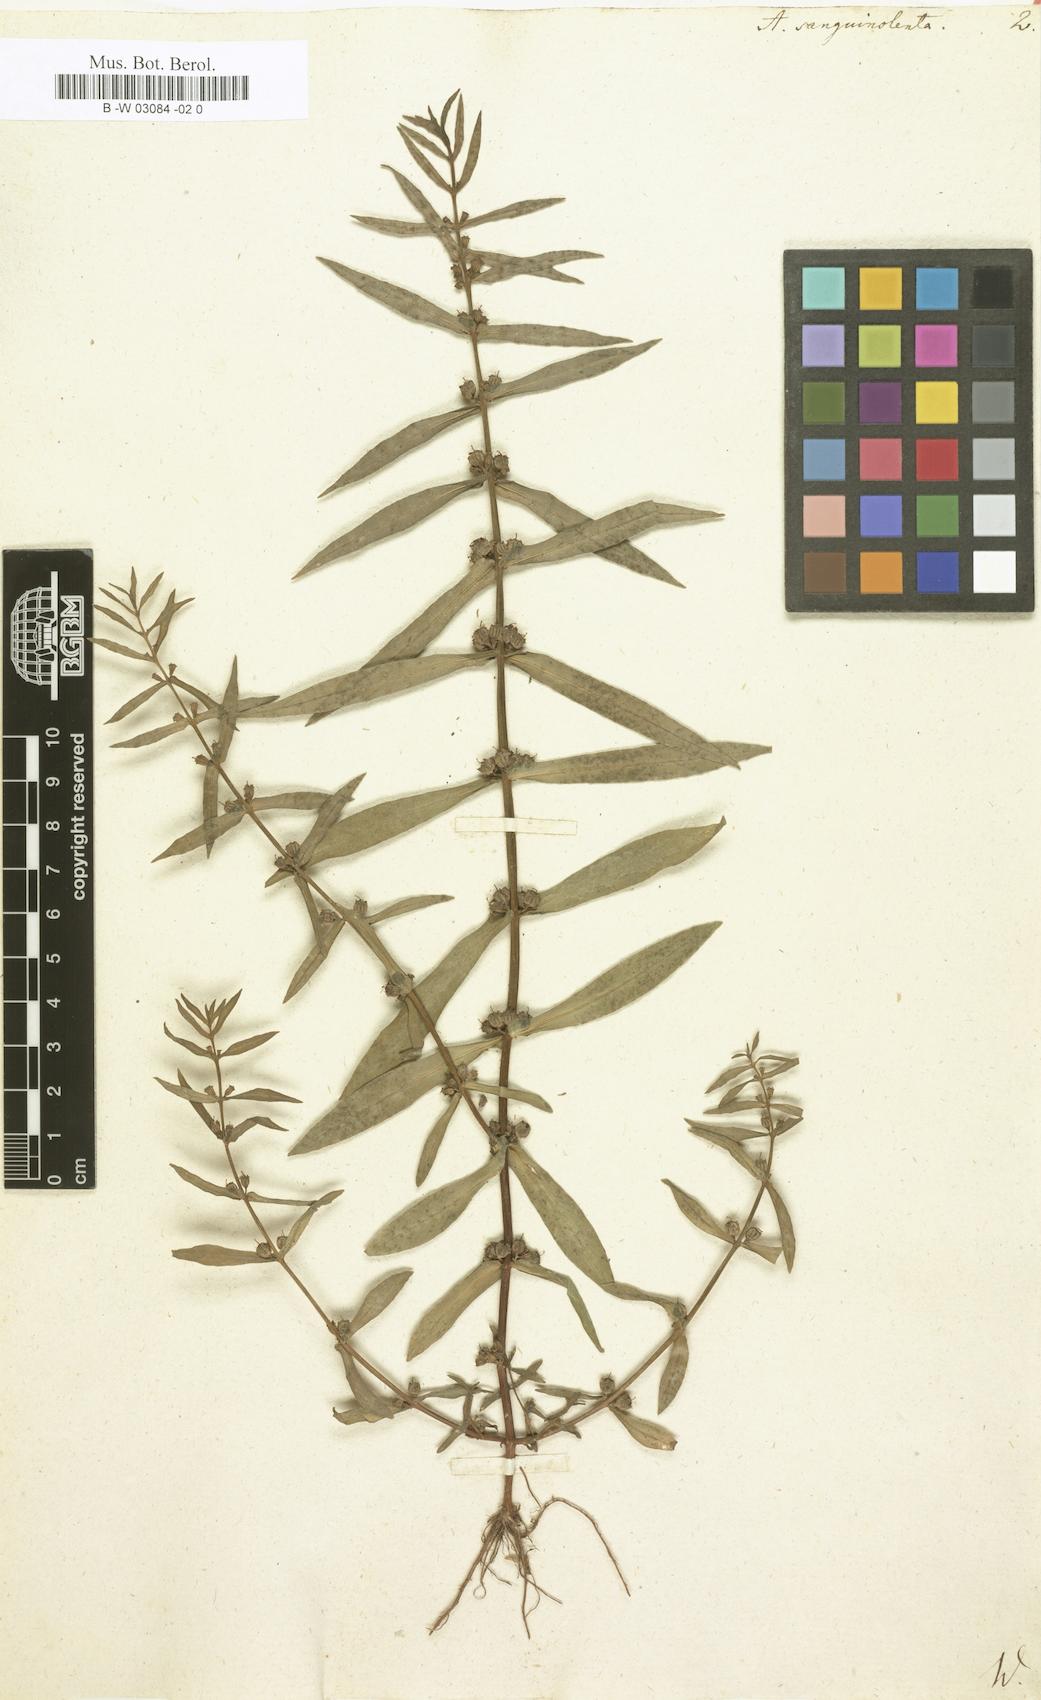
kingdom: Plantae
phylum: Tracheophyta
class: Magnoliopsida
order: Myrtales
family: Lythraceae
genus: Ammannia
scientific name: Ammannia
